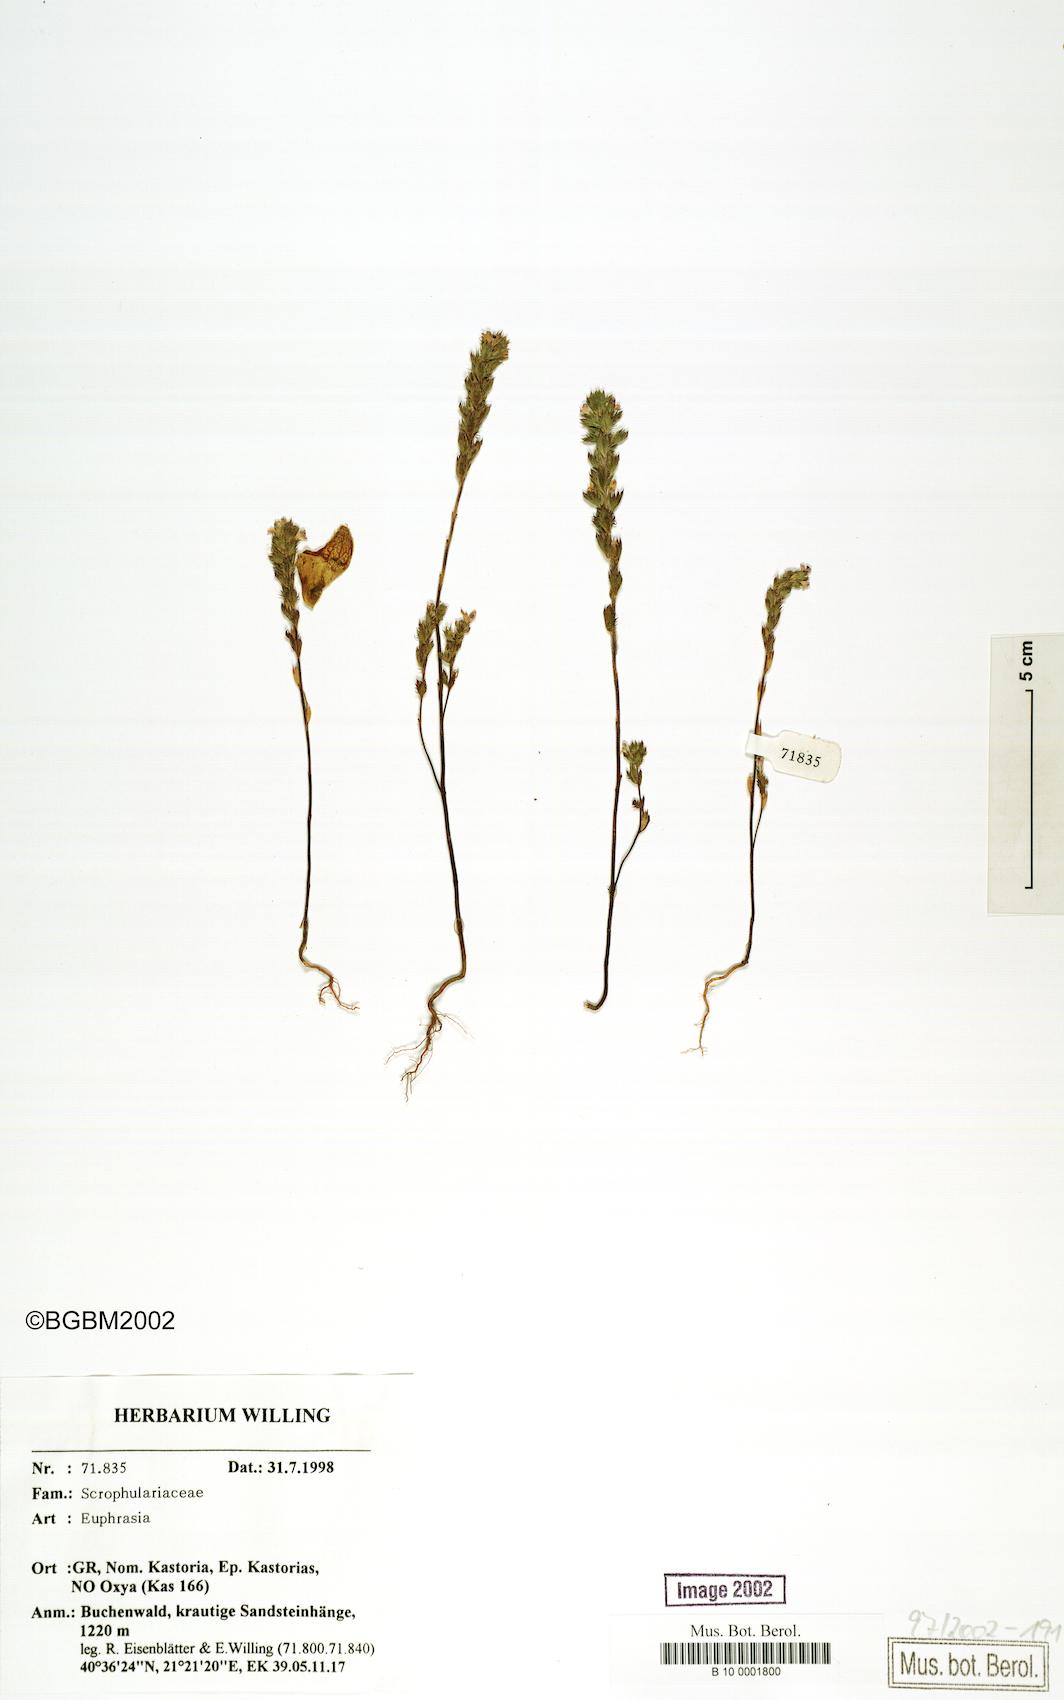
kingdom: Plantae
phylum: Tracheophyta
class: Magnoliopsida
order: Lamiales
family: Orobanchaceae
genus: Euphrasia
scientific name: Euphrasia
